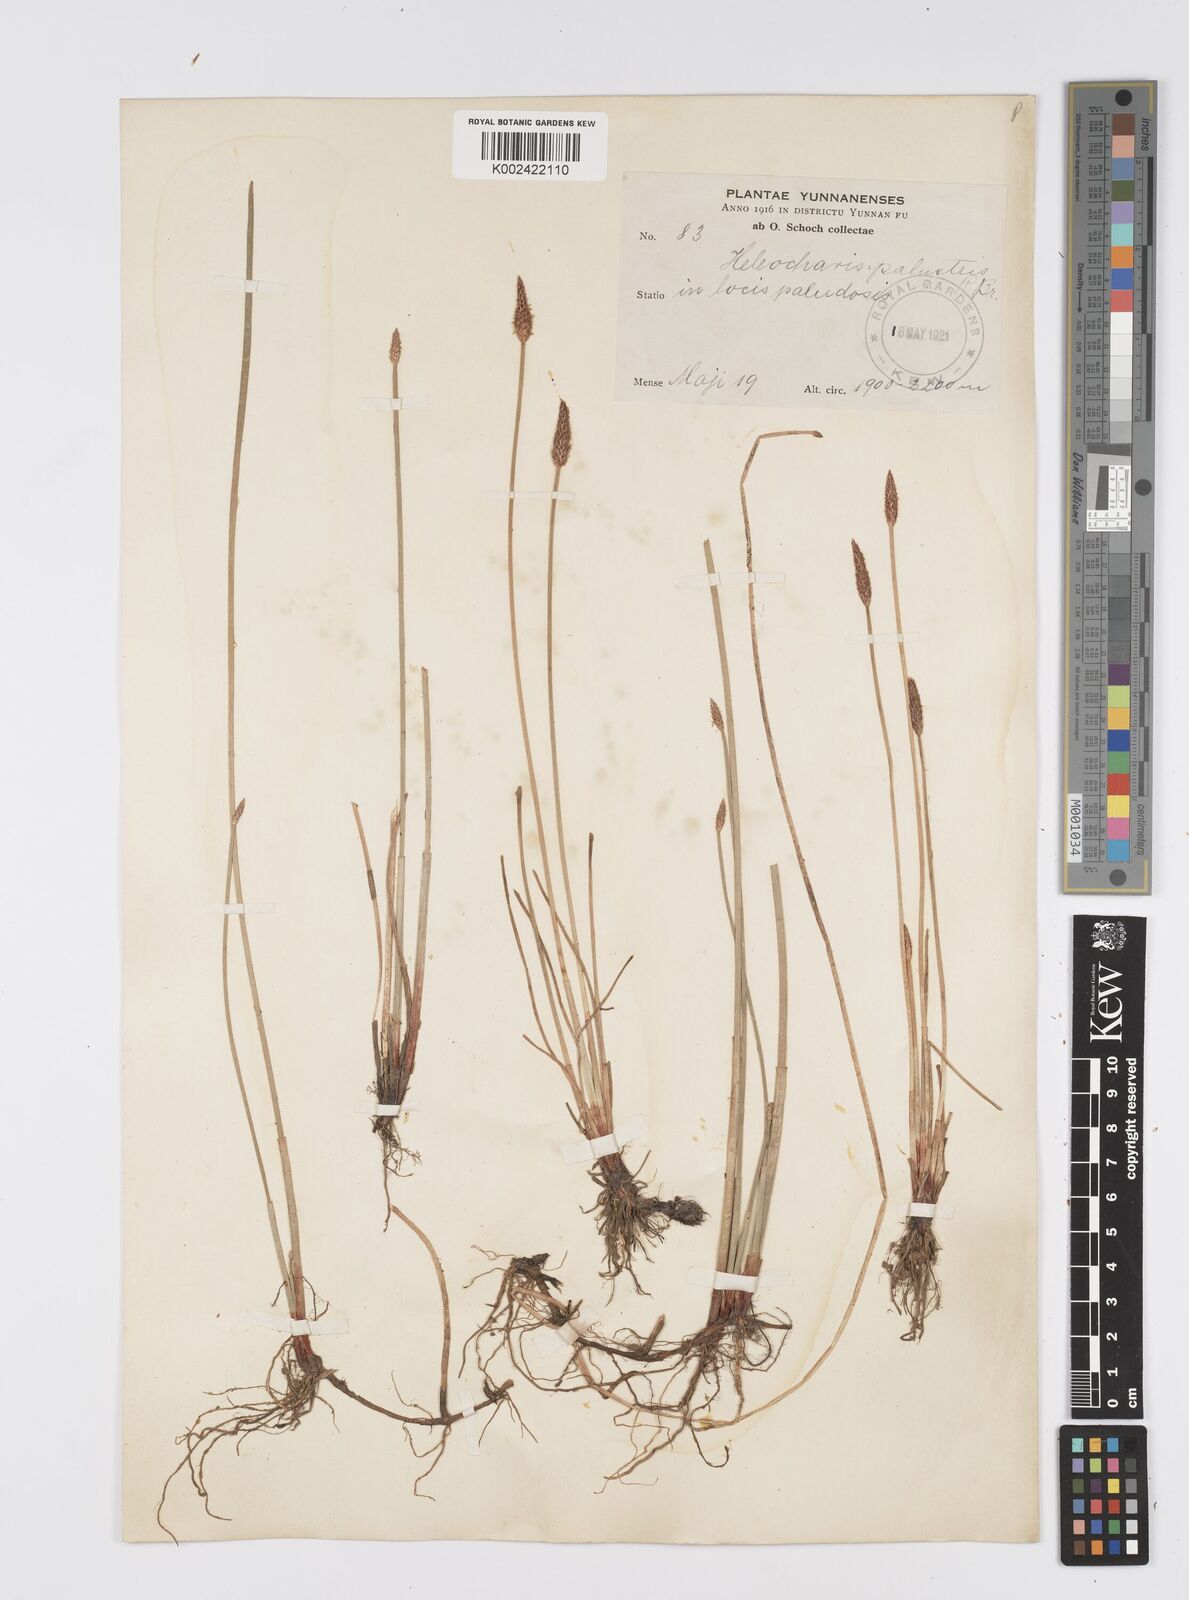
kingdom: Plantae
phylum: Tracheophyta
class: Liliopsida
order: Poales
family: Cyperaceae
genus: Eleocharis
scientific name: Eleocharis palustris
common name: Common spike-rush
